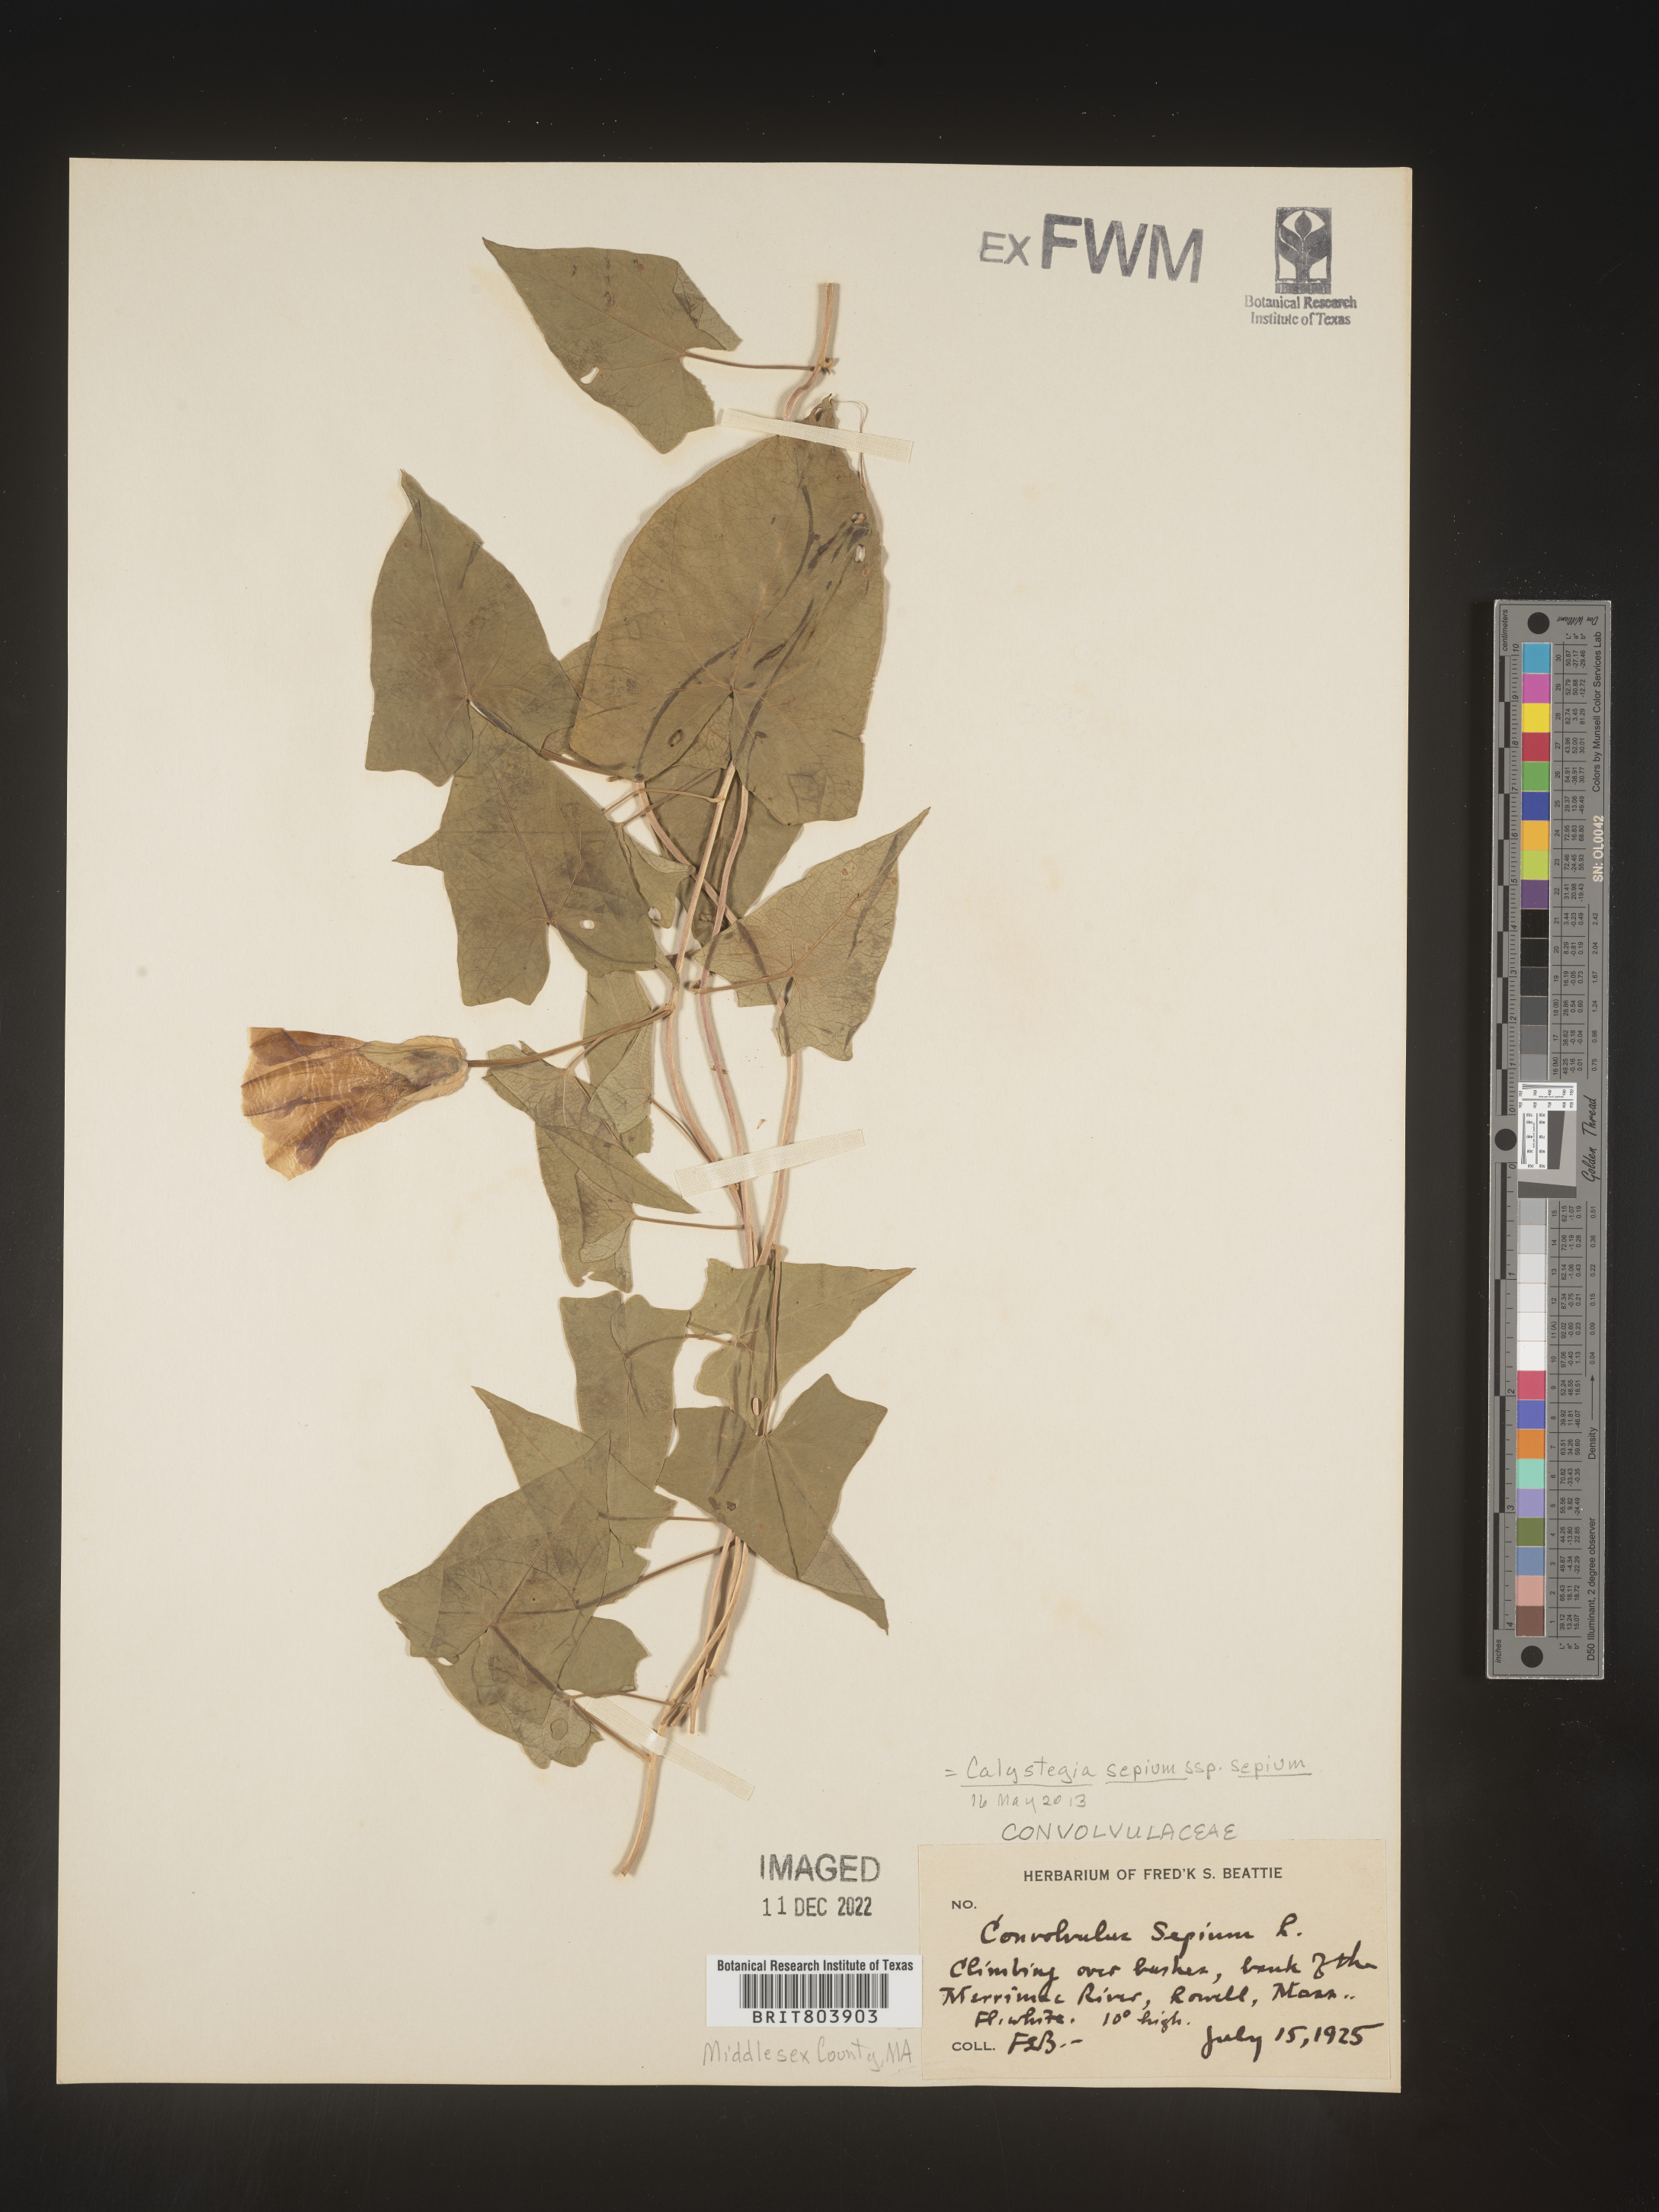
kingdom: Plantae
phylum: Tracheophyta
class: Magnoliopsida
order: Solanales
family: Convolvulaceae
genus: Calystegia
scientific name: Calystegia sepium
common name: Hedge bindweed
